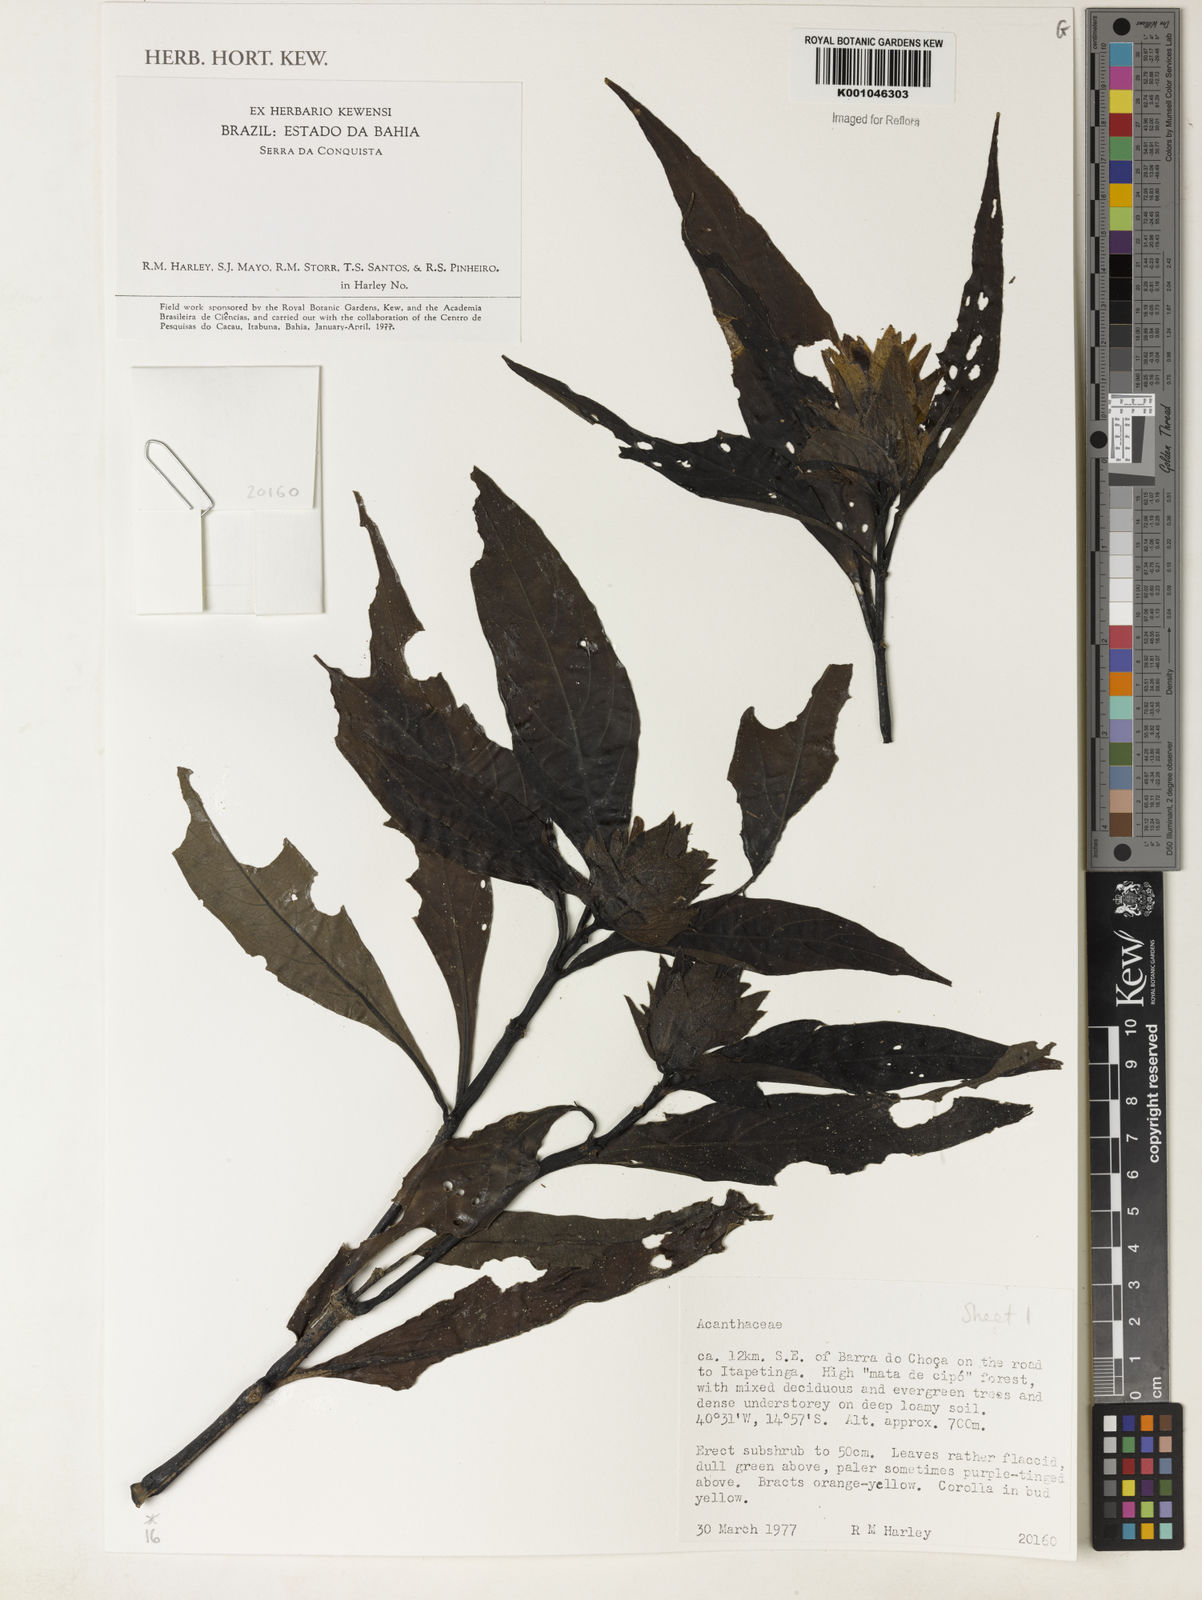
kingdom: Plantae
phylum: Tracheophyta
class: Magnoliopsida
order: Lamiales
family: Acanthaceae
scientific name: Acanthaceae
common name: Acanthaceae
